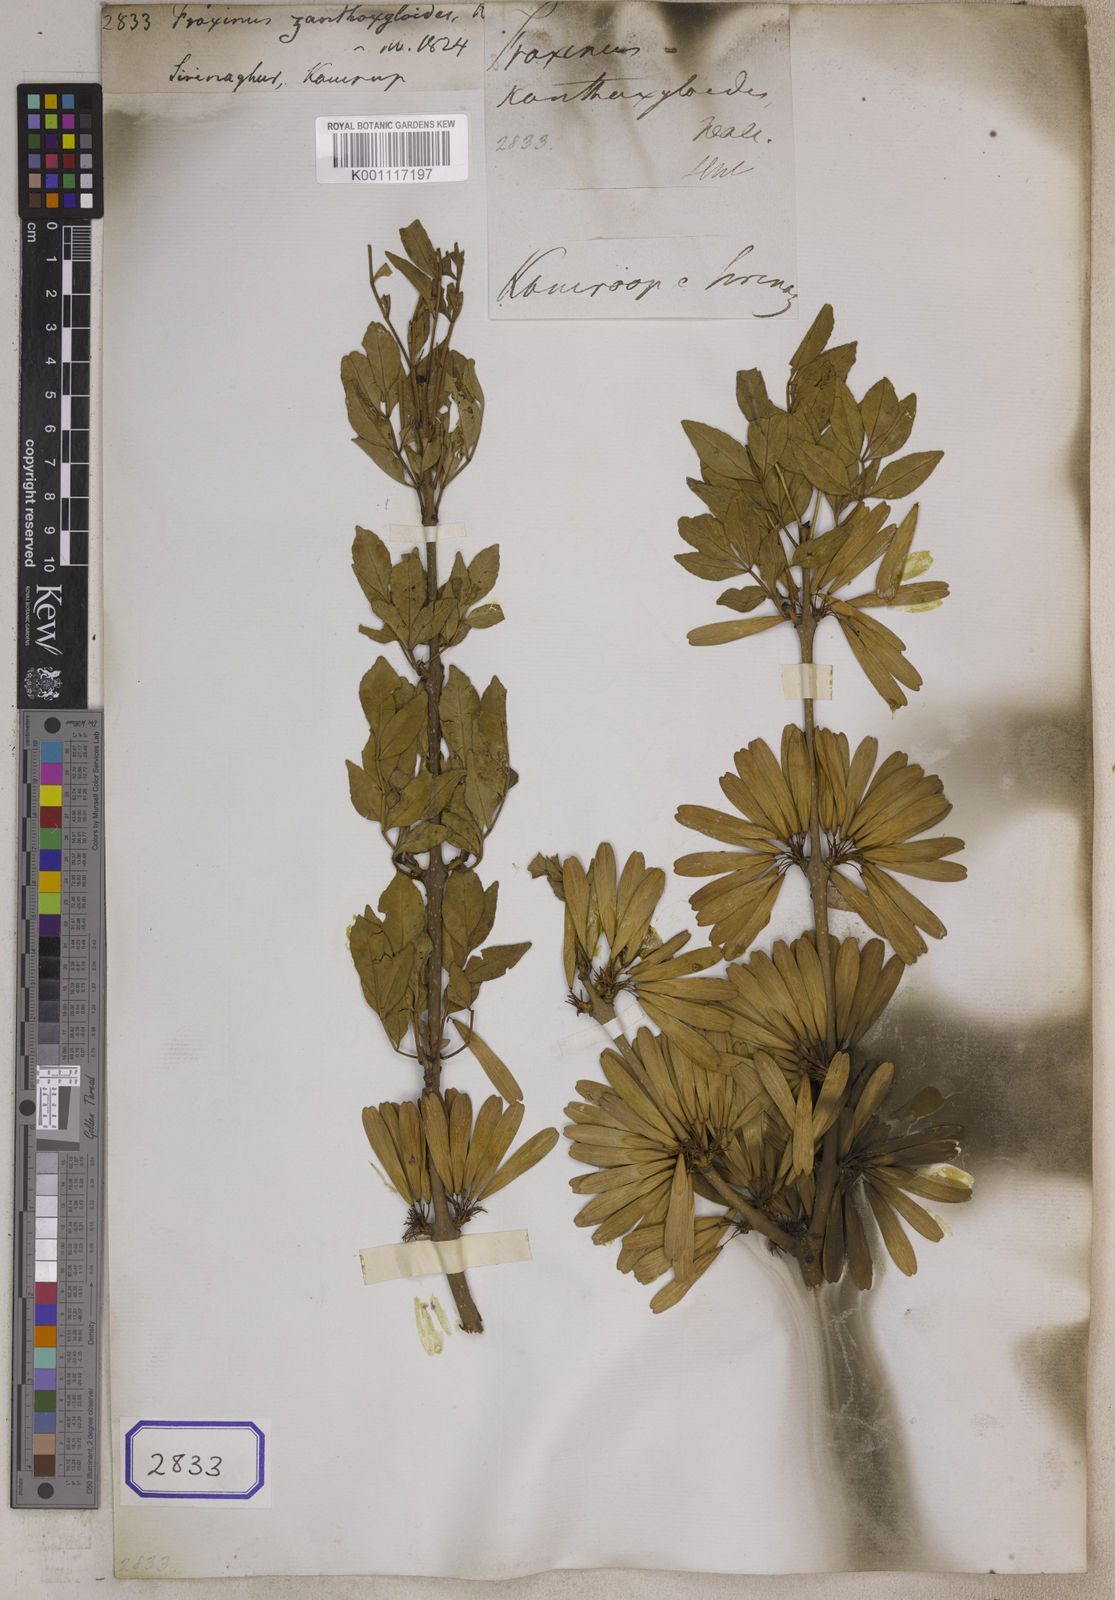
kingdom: Plantae
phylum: Tracheophyta
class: Magnoliopsida
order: Lamiales
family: Oleaceae
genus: Fraxinus
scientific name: Fraxinus
